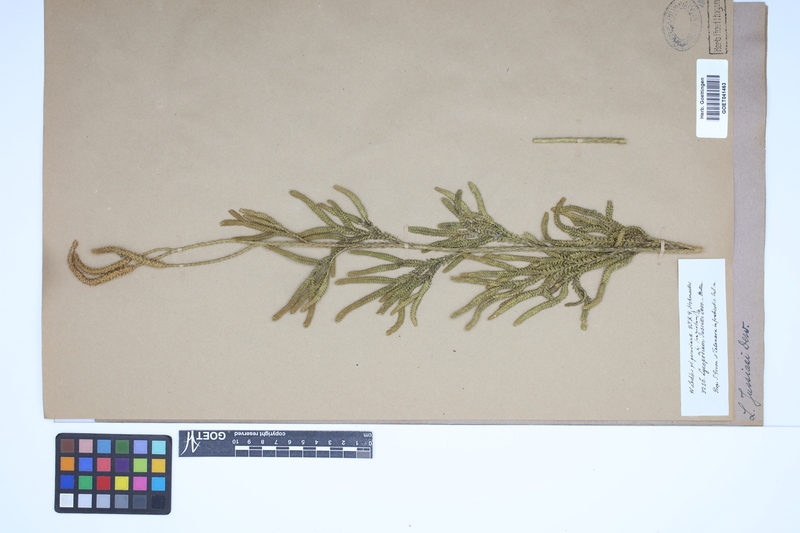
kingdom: Plantae
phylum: Tracheophyta
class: Lycopodiopsida
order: Lycopodiales
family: Lycopodiaceae
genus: Diphasium
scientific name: Diphasium jussiaei
